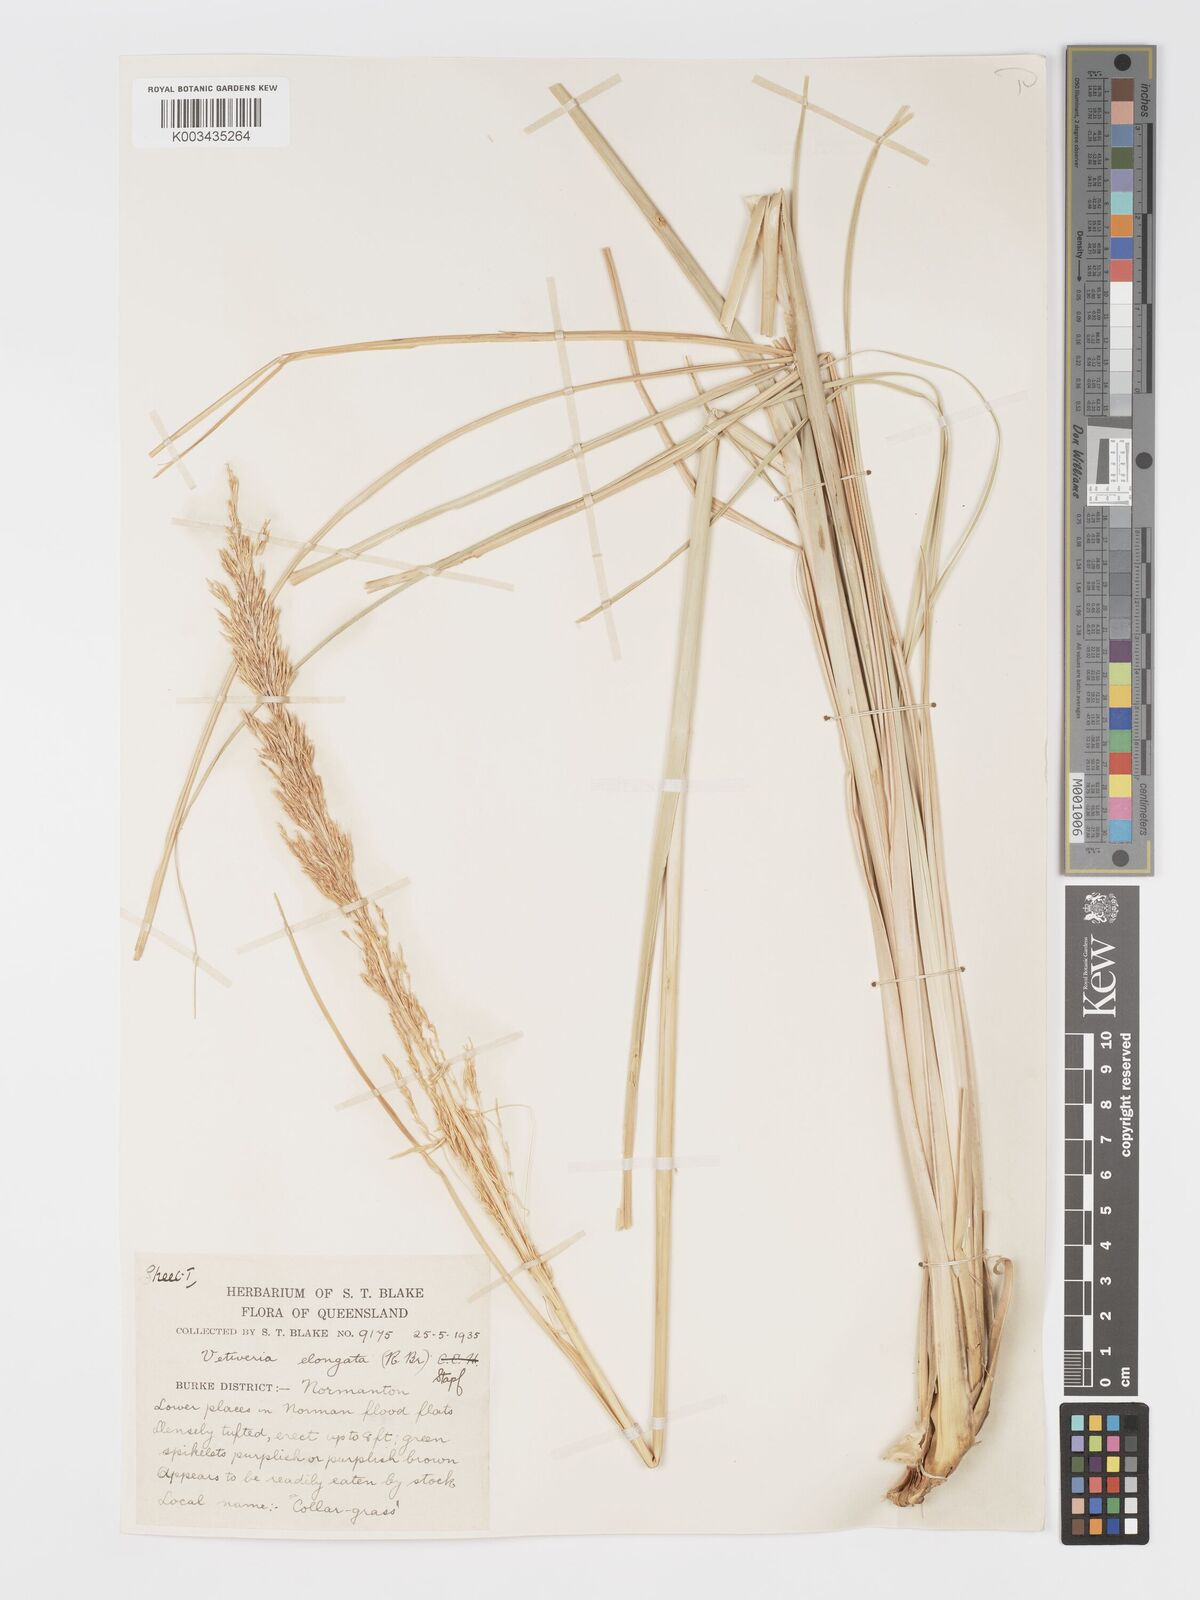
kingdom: Plantae
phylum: Tracheophyta
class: Liliopsida
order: Poales
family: Poaceae
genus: Chrysopogon
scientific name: Chrysopogon elongatus
